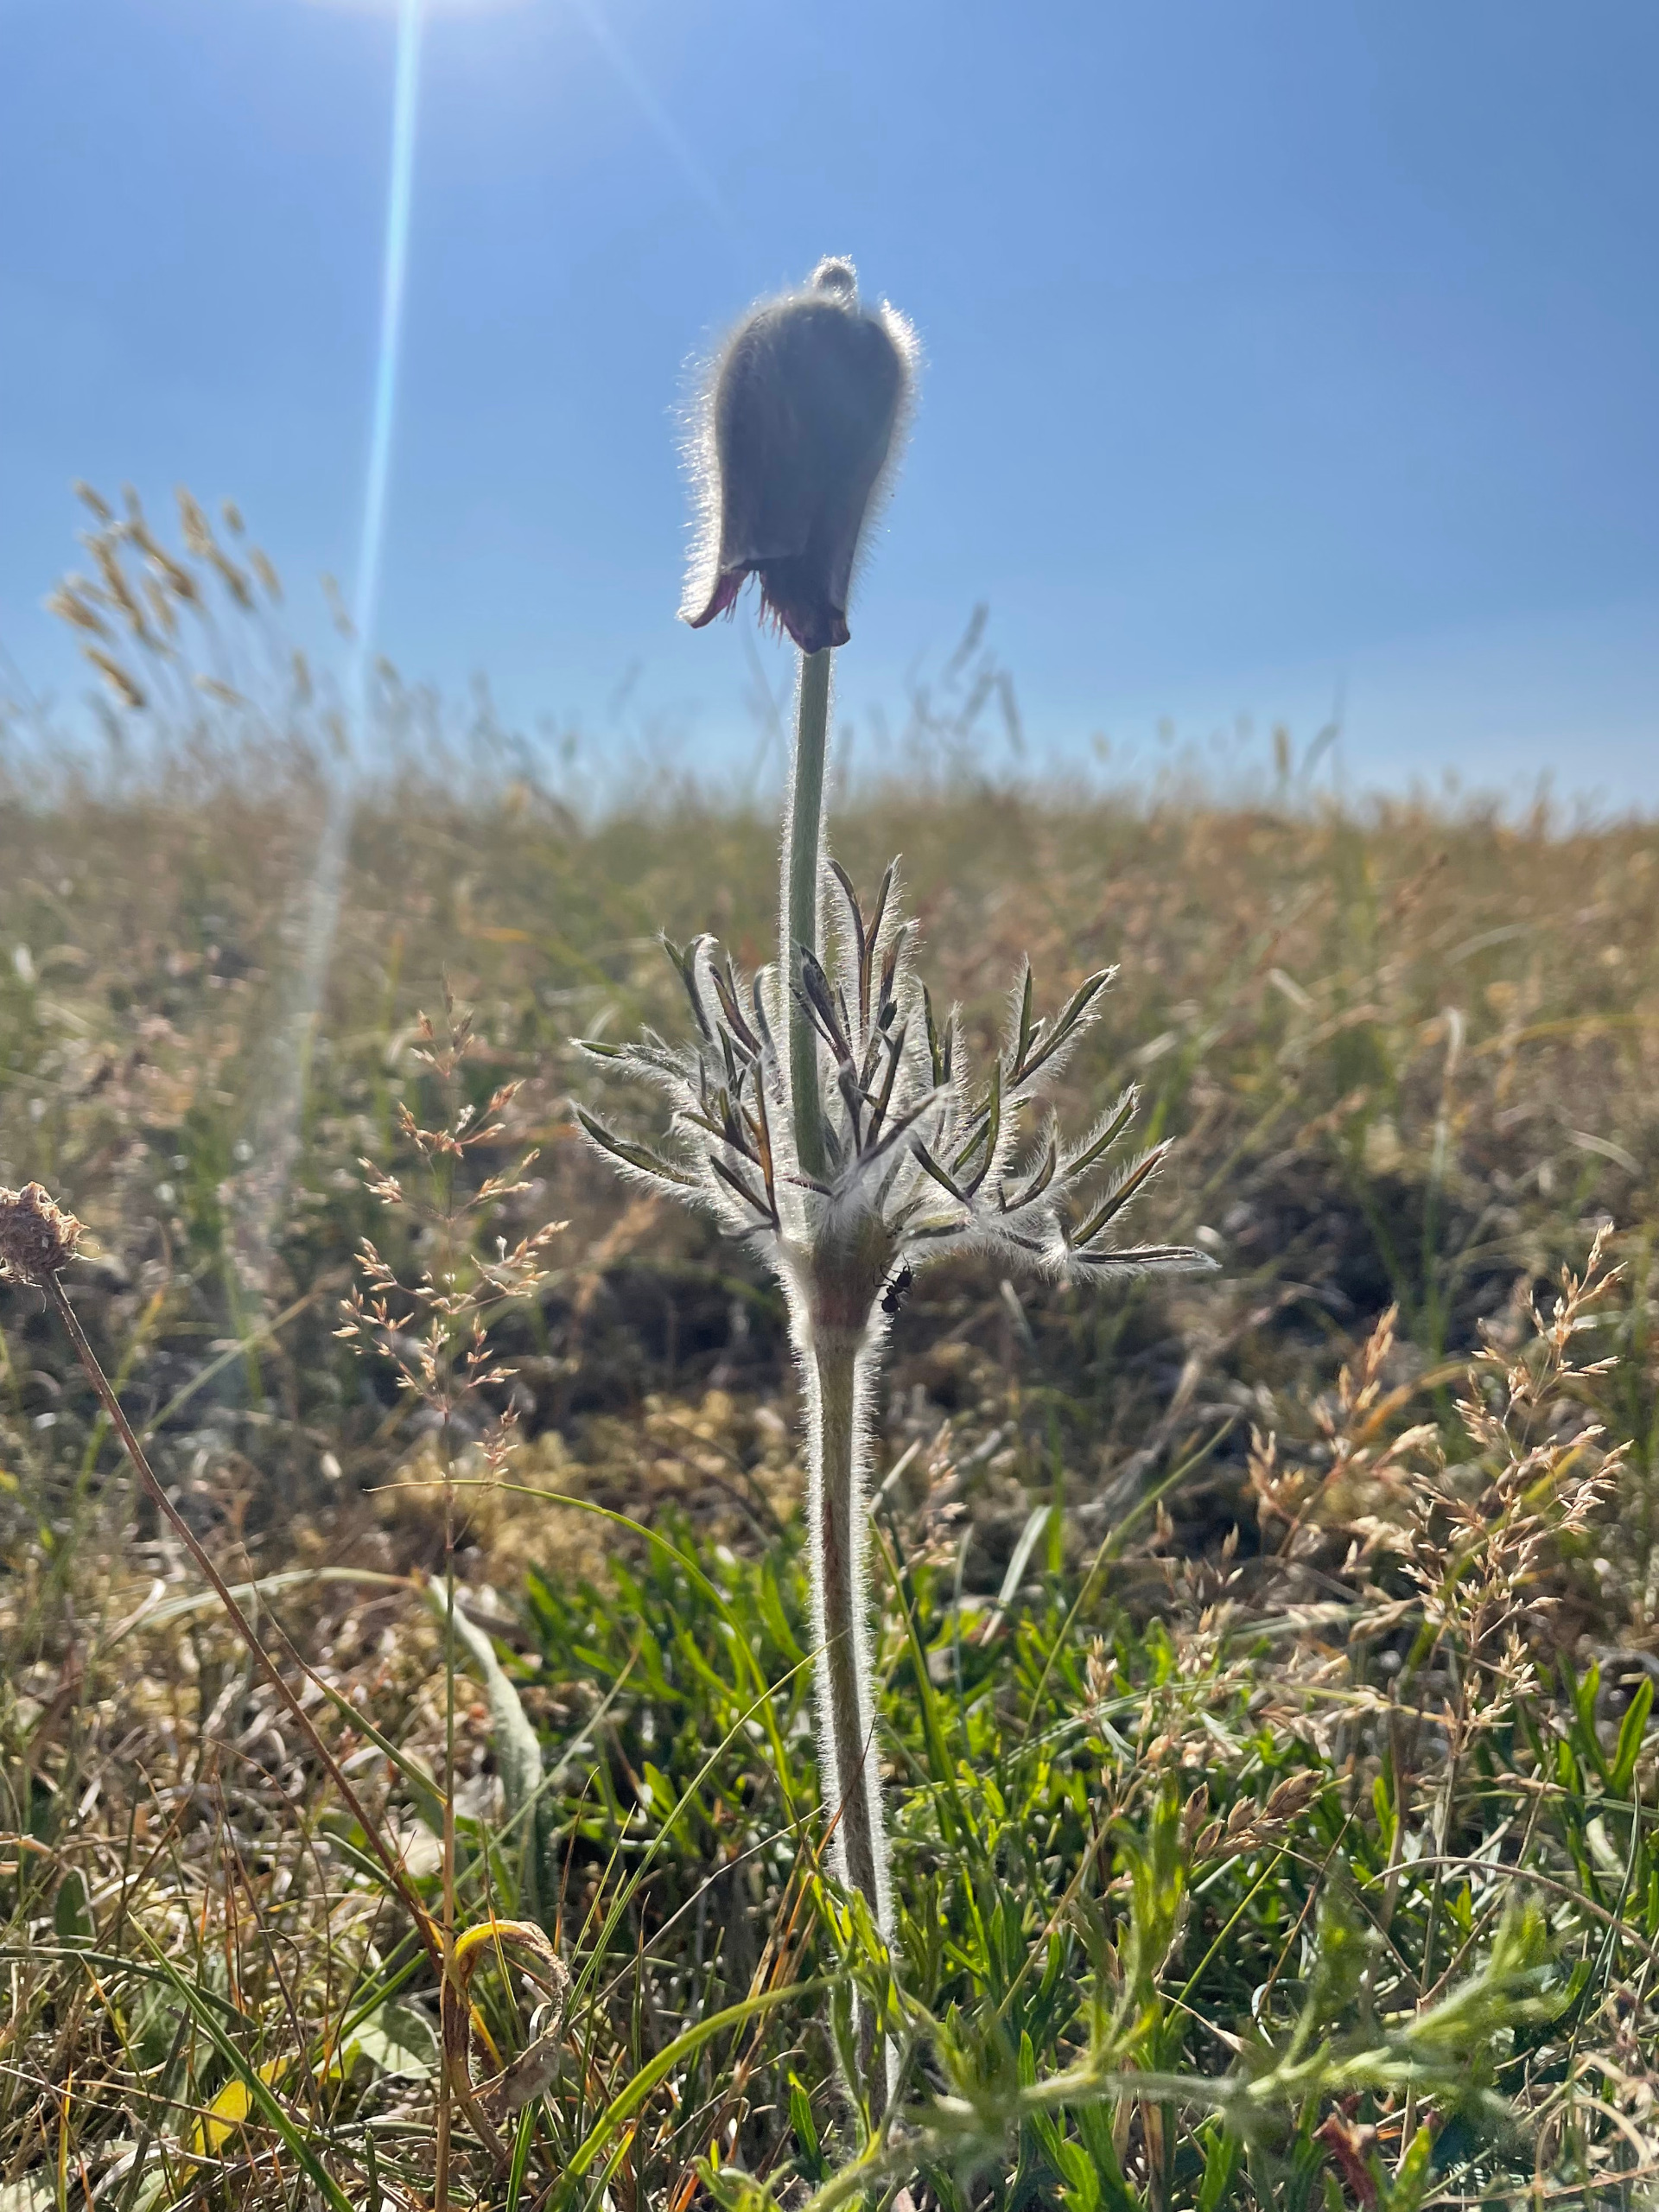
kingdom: Plantae
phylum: Tracheophyta
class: Magnoliopsida
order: Ranunculales
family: Ranunculaceae
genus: Pulsatilla
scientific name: Pulsatilla pratensis
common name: Nikkende kobjælde
